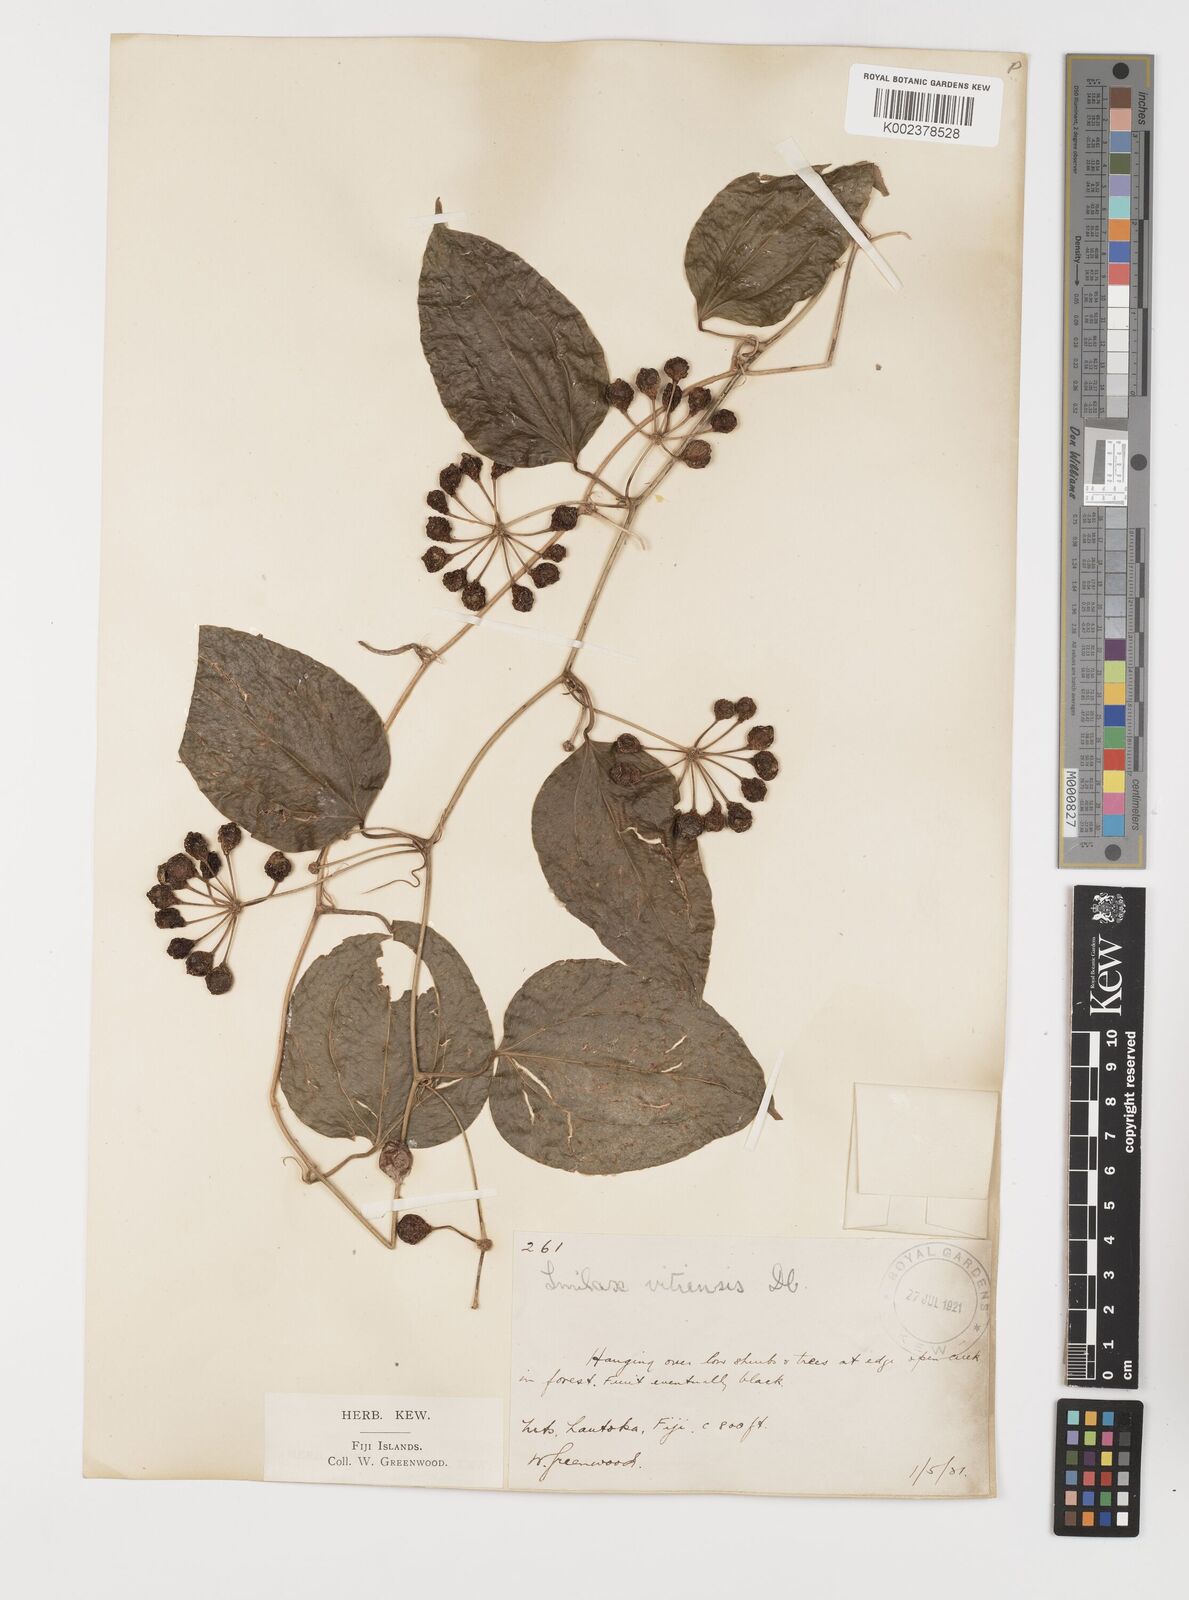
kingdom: Plantae
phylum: Tracheophyta
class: Liliopsida
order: Liliales
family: Smilacaceae
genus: Smilax
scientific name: Smilax vitiensis
